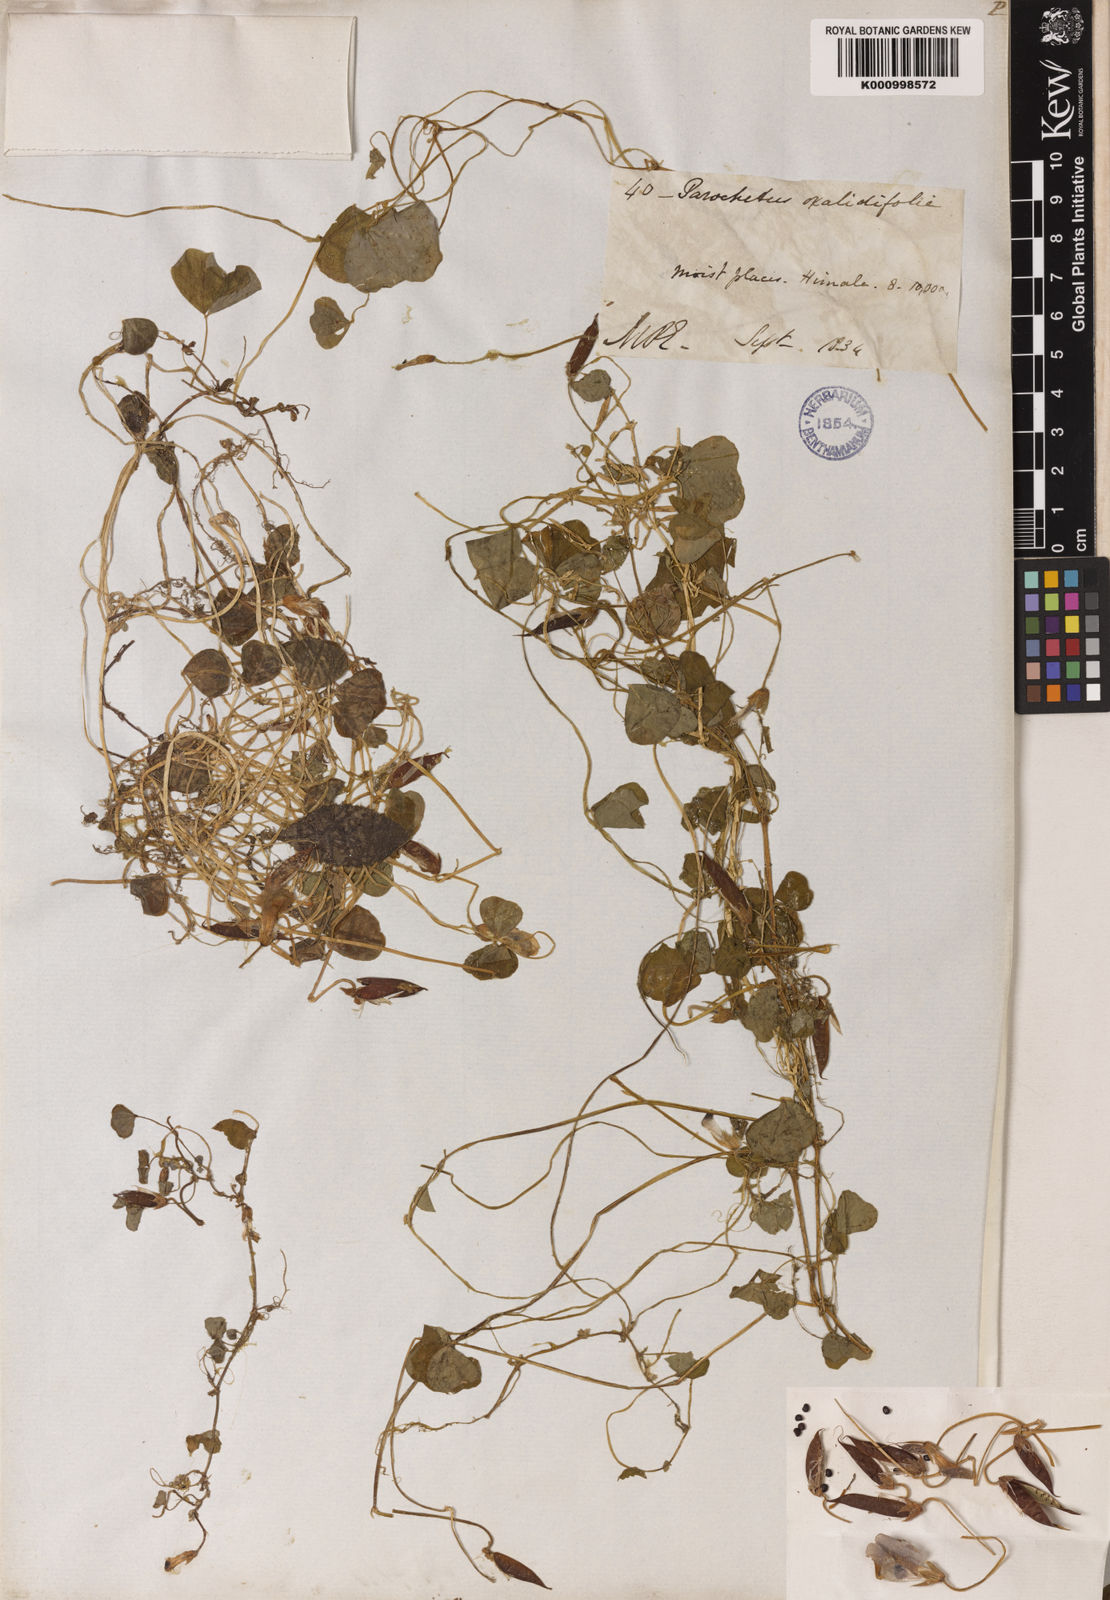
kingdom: Plantae
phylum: Tracheophyta
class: Magnoliopsida
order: Fabales
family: Fabaceae
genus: Parochetus
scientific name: Parochetus communis
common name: Blue oxalis
